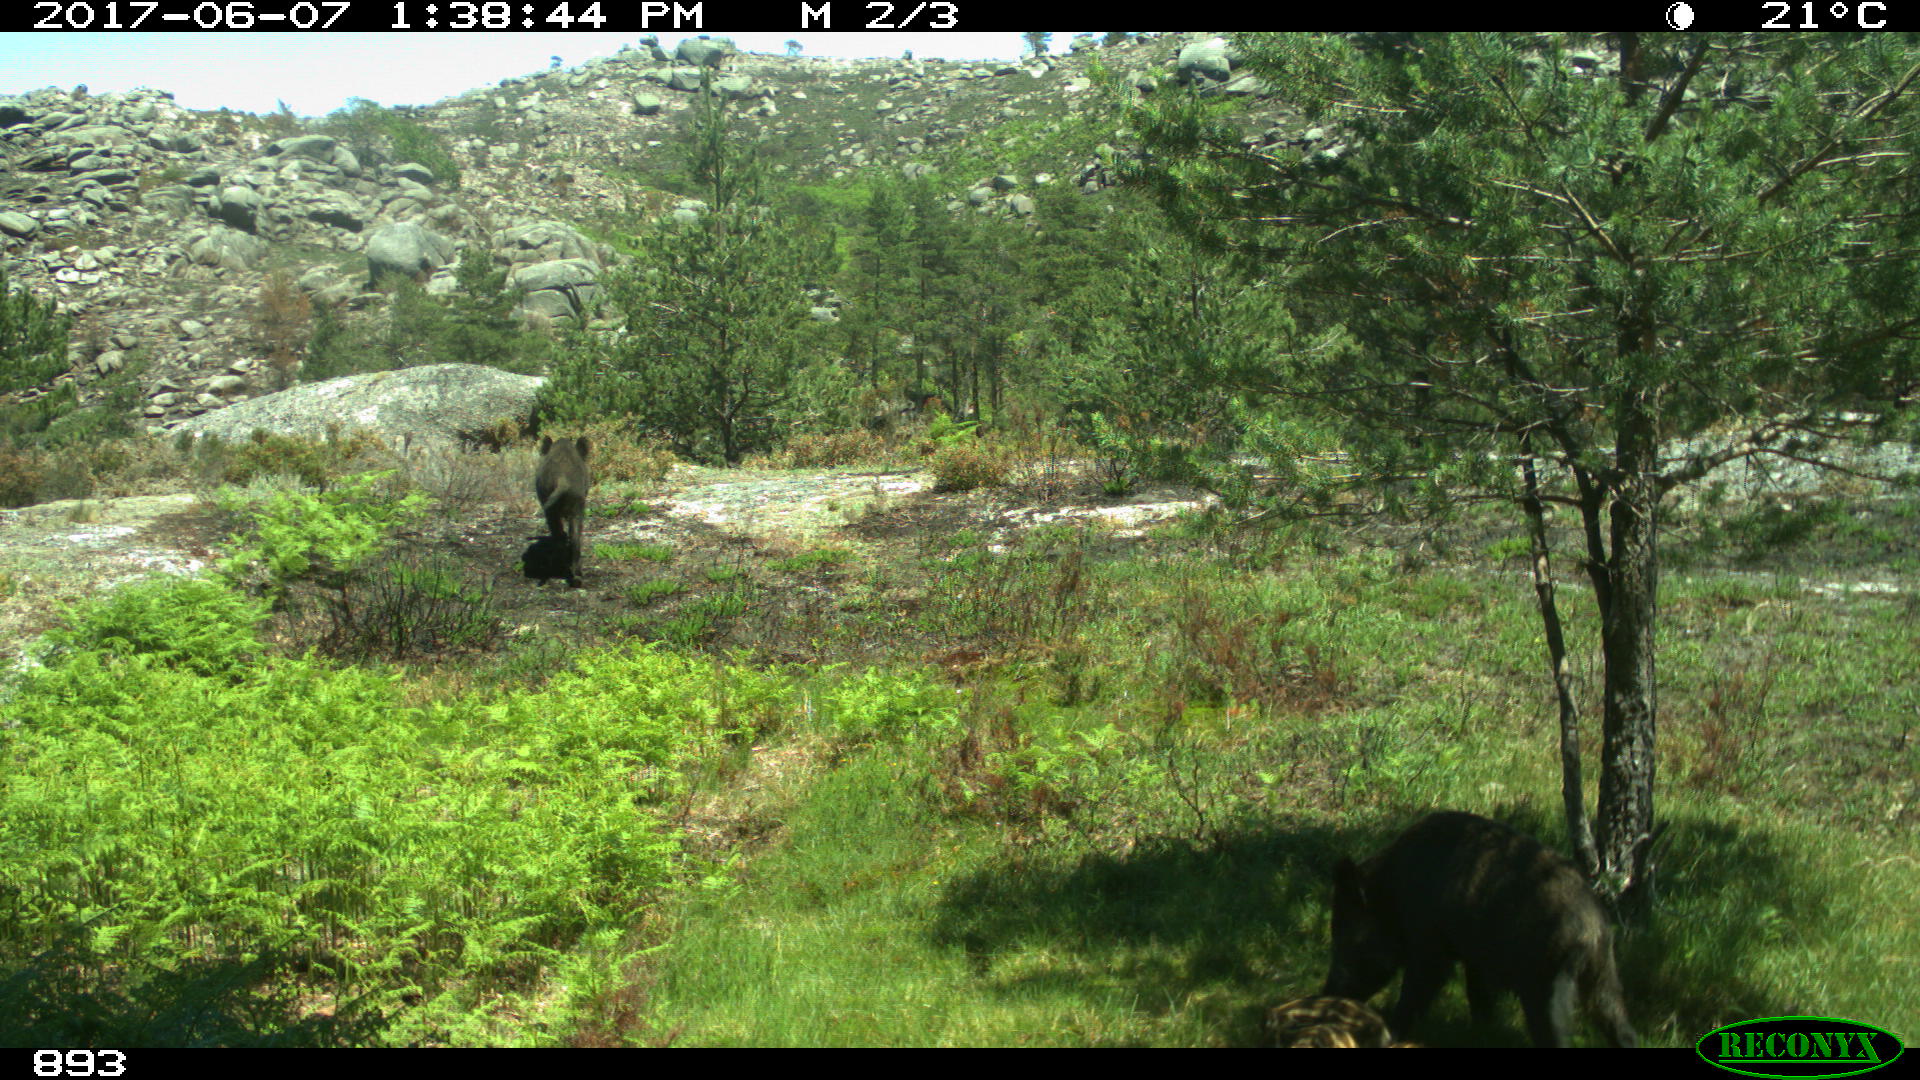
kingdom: Animalia
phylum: Chordata
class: Mammalia
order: Artiodactyla
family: Suidae
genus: Sus
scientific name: Sus scrofa
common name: Wild boar
